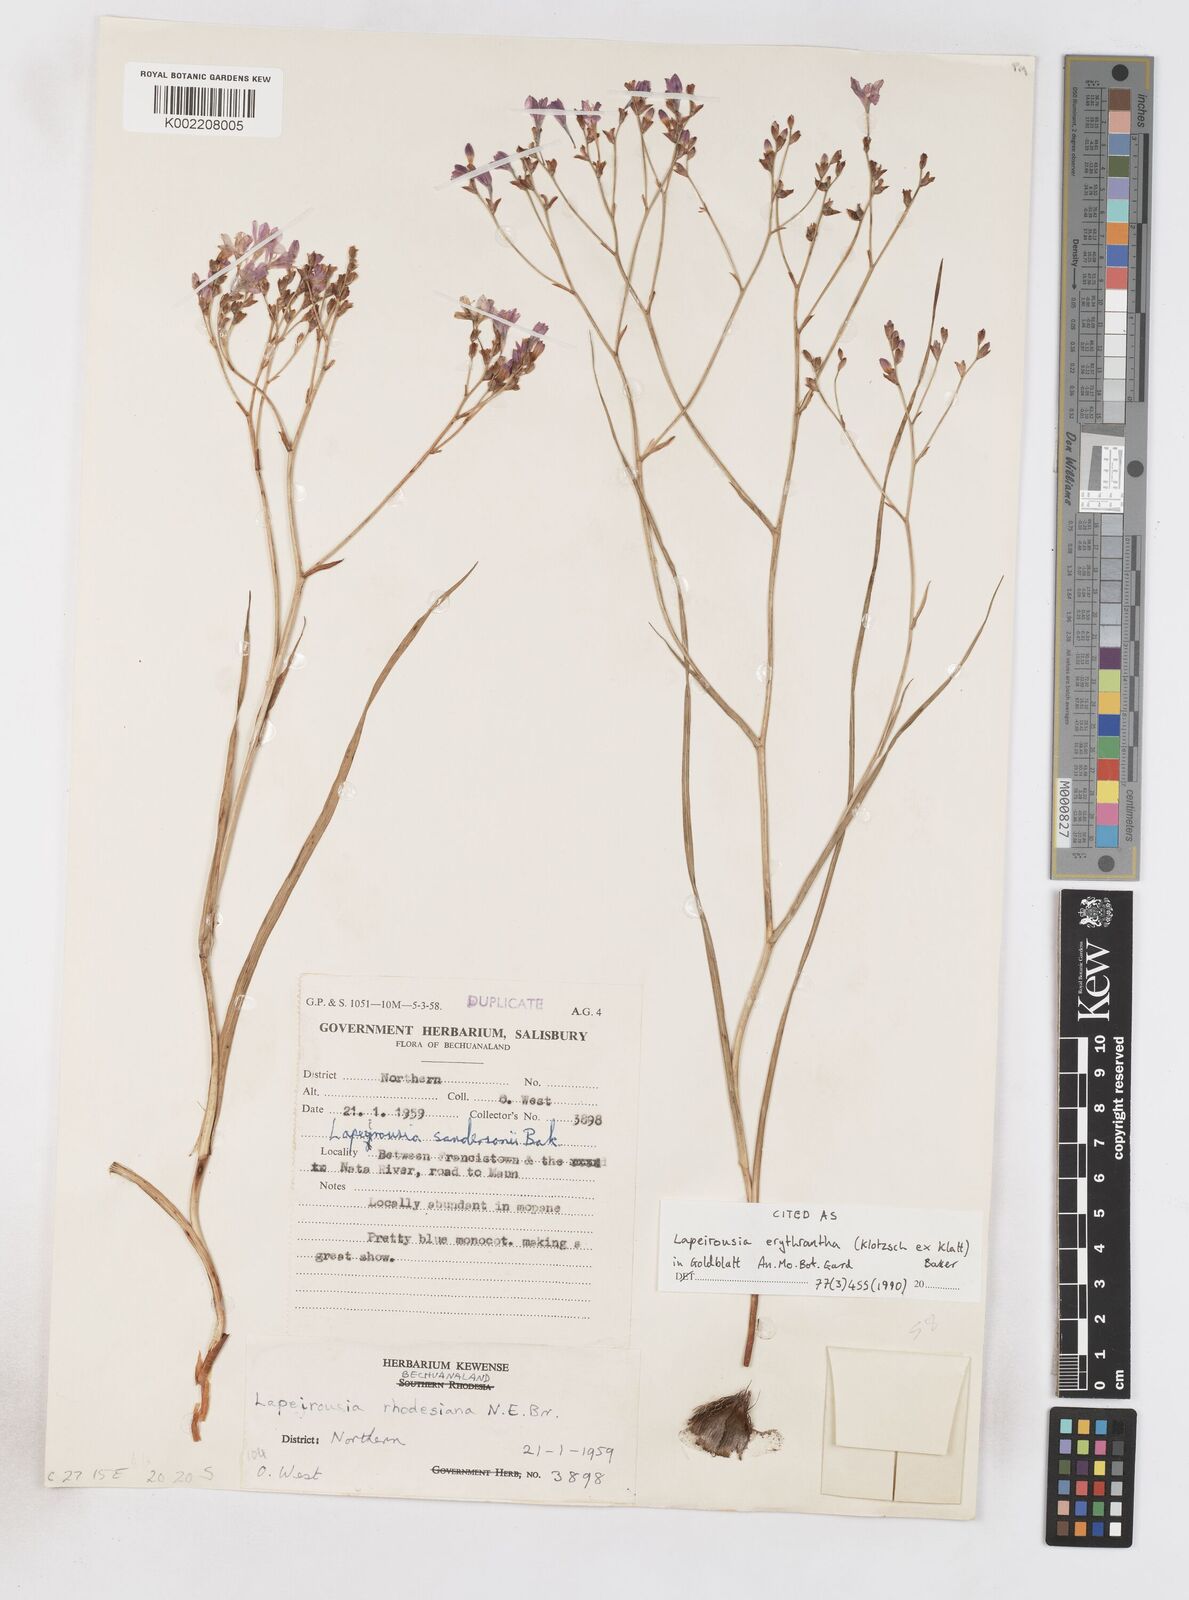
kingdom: Plantae
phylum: Tracheophyta
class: Liliopsida
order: Asparagales
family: Iridaceae
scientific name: Iridaceae
